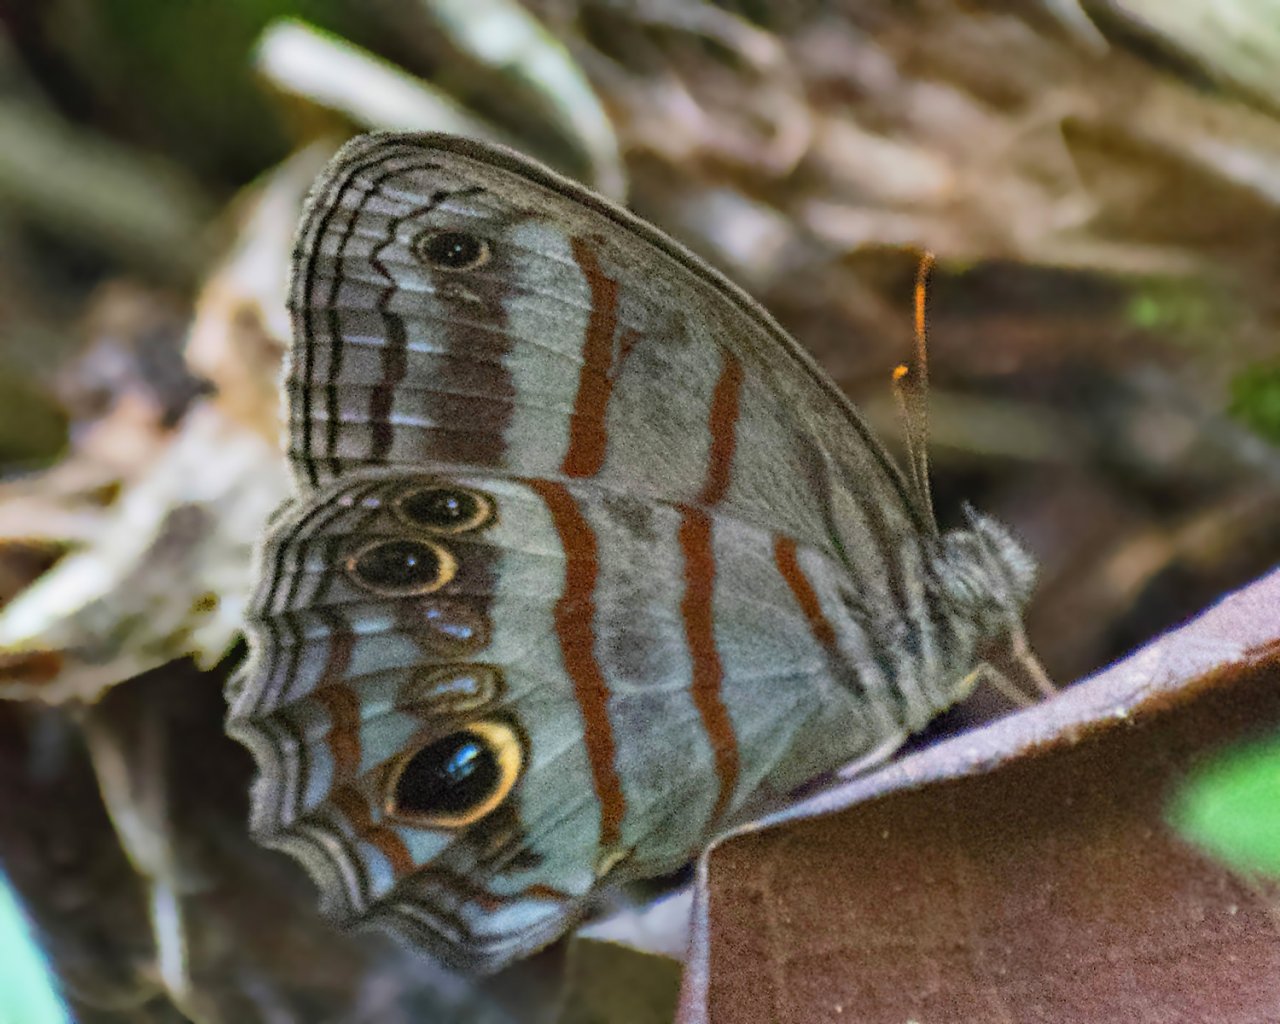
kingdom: Animalia
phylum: Arthropoda
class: Insecta
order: Lepidoptera
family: Nymphalidae
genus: Magneuptychia
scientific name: Magneuptychia libye
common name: Blue-gray Satyr
